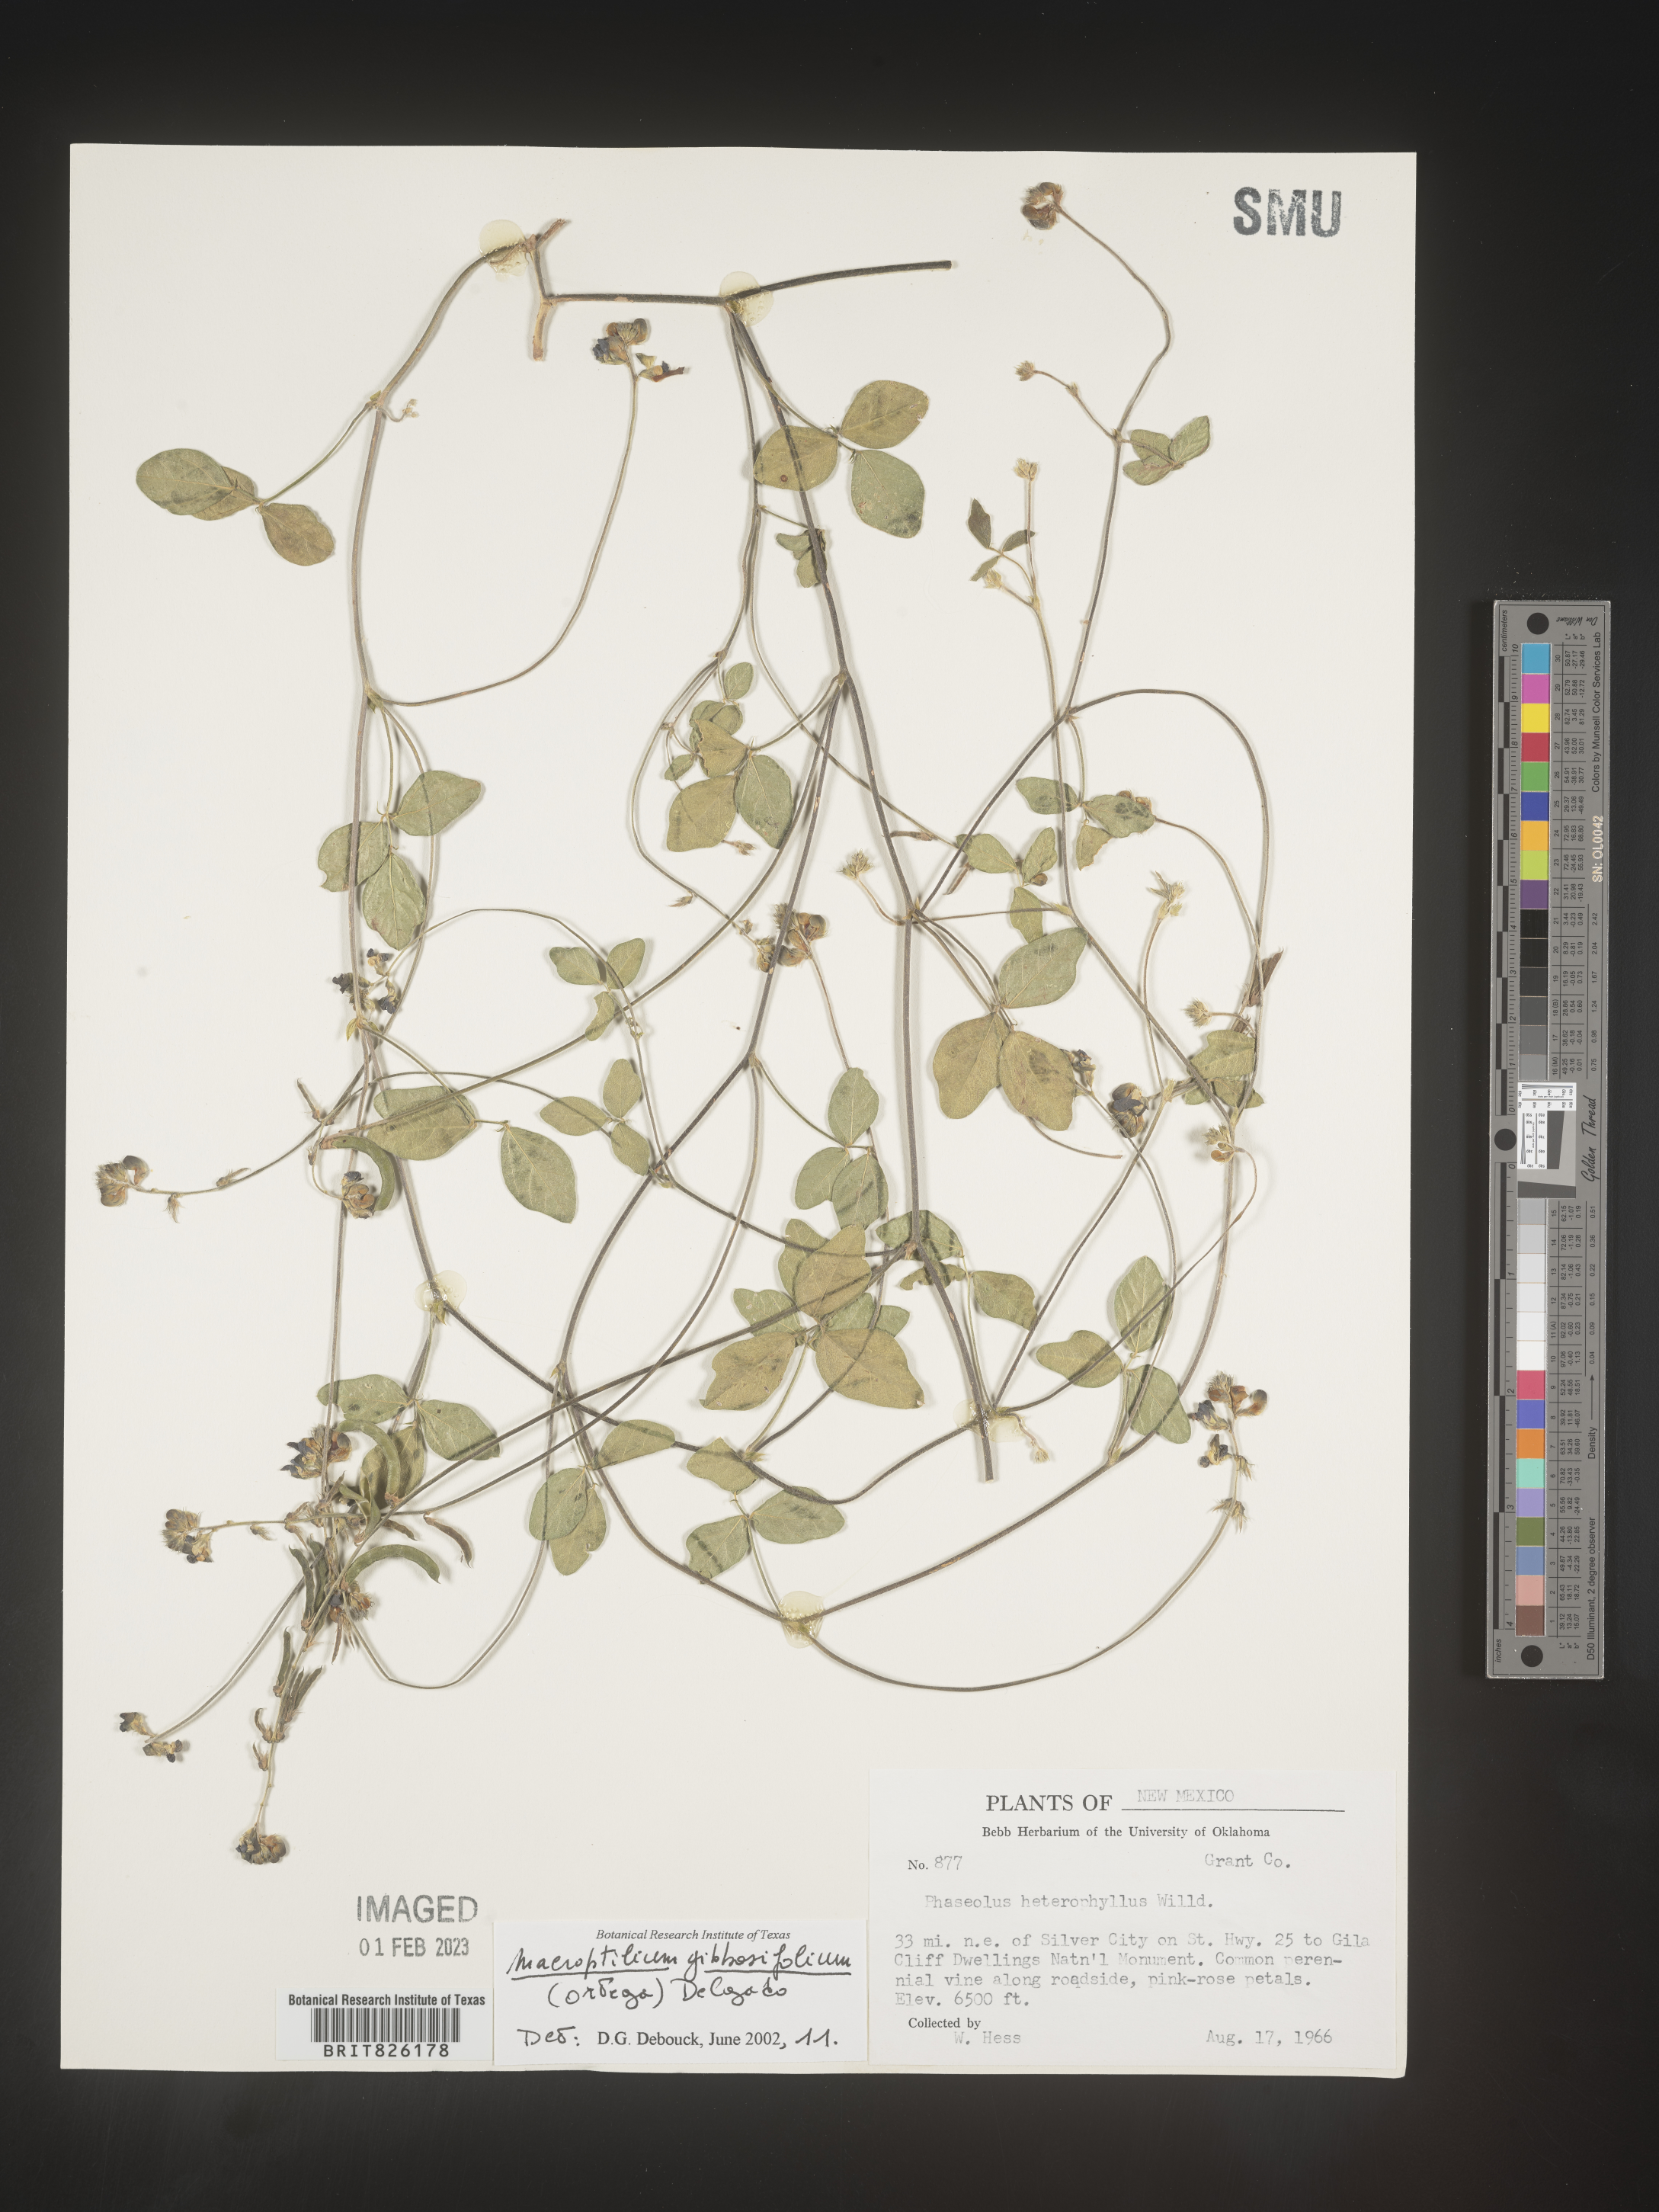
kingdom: Plantae
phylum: Tracheophyta
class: Magnoliopsida
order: Fabales
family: Fabaceae
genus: Macroptilium
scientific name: Macroptilium
